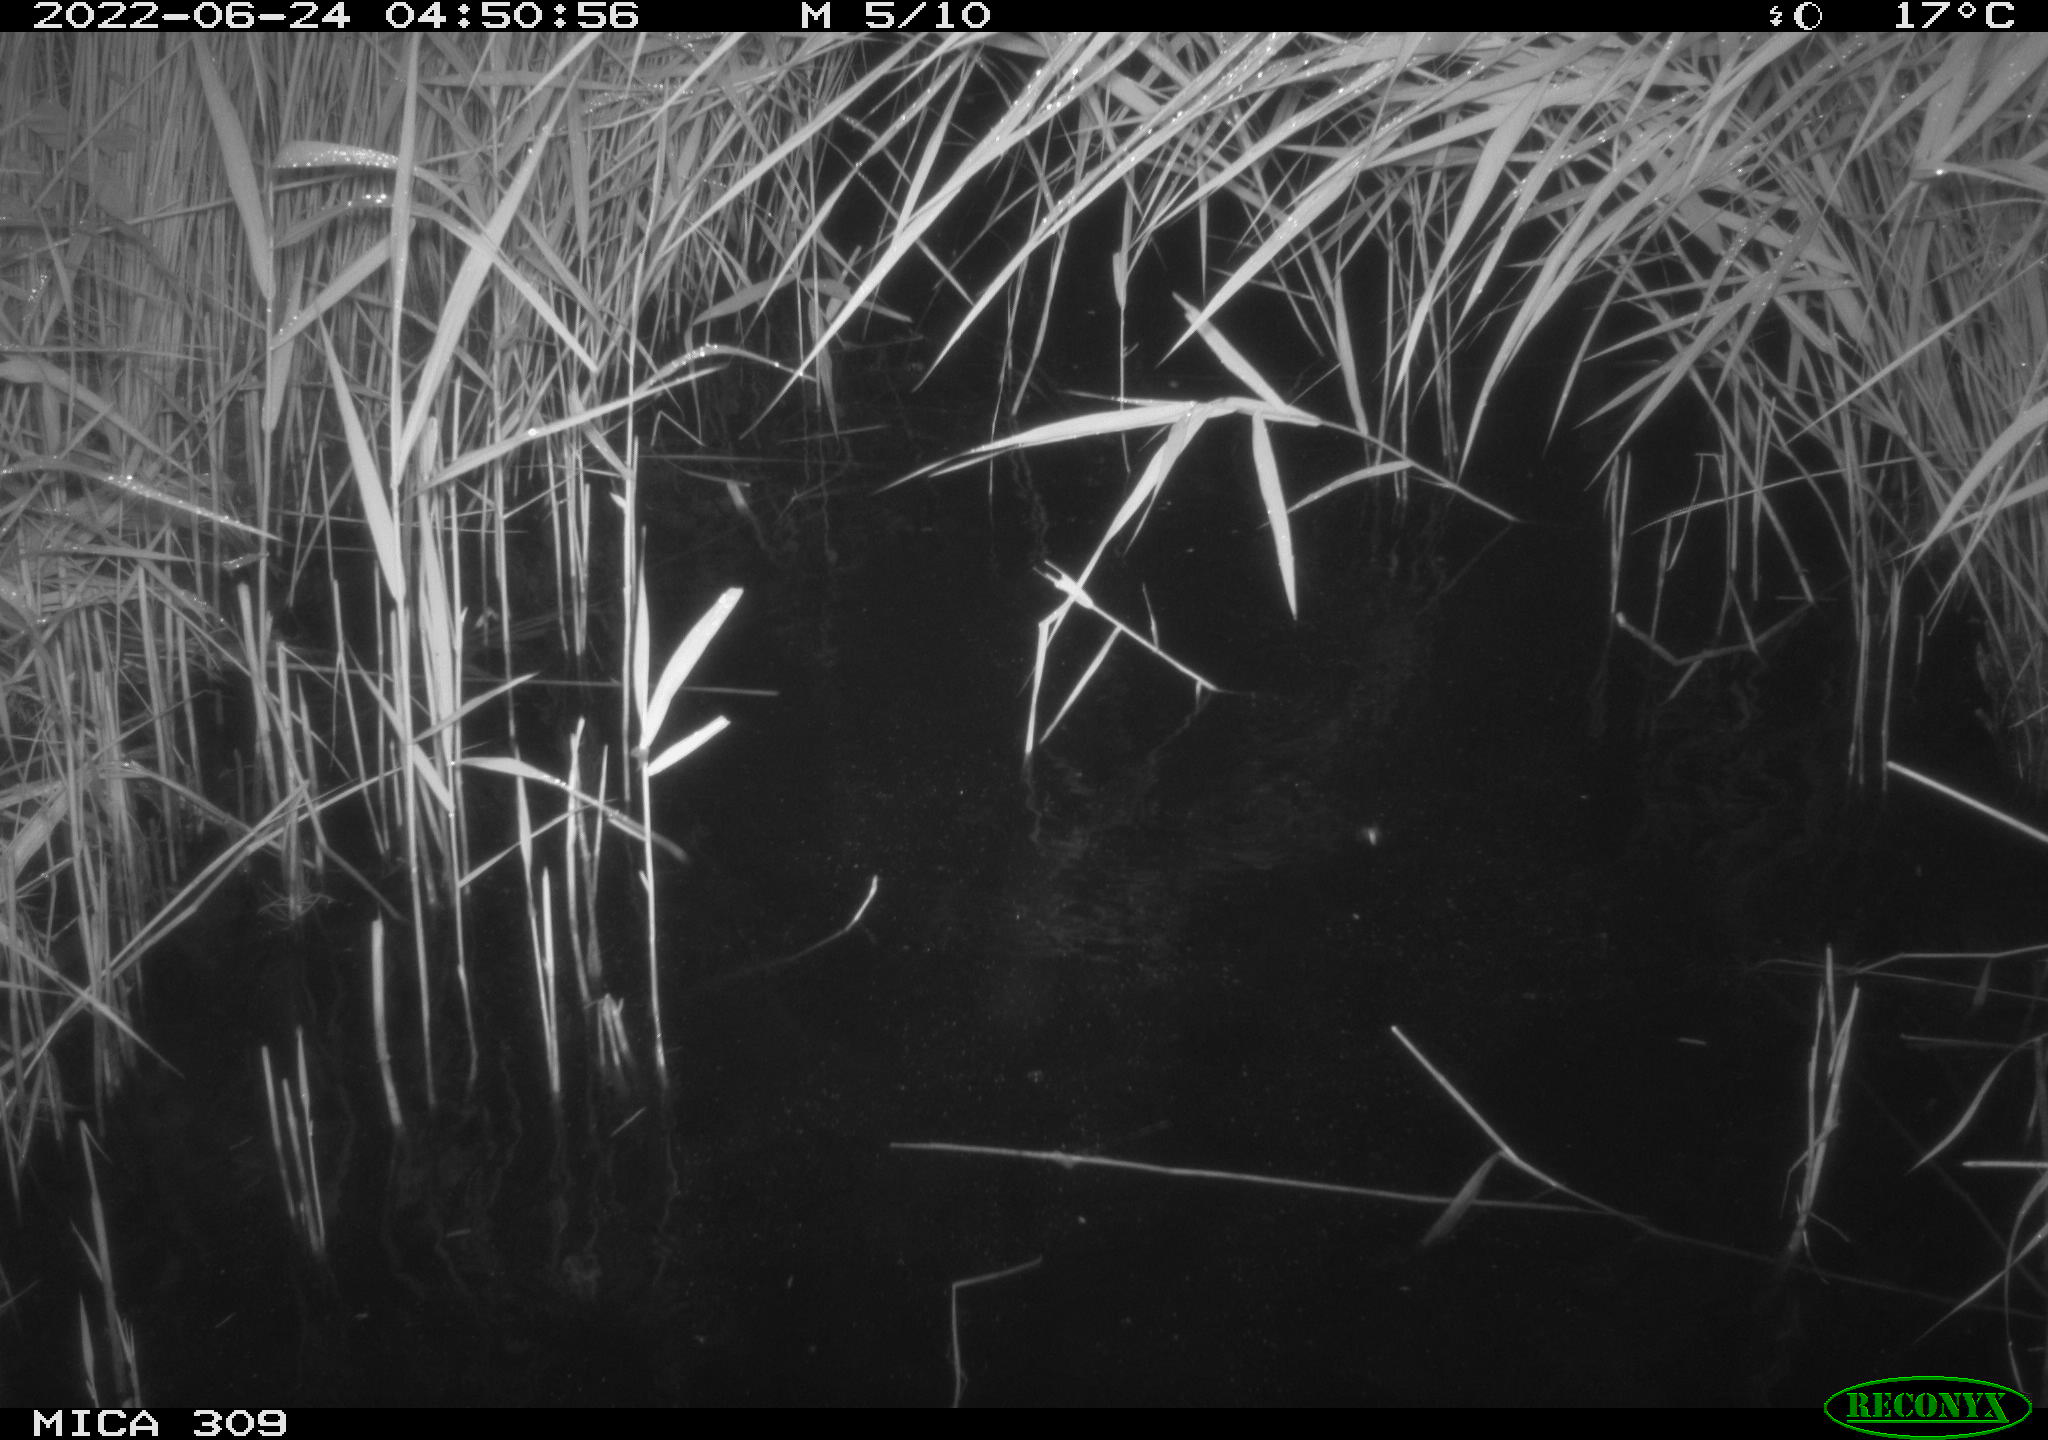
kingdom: Animalia
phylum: Chordata
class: Aves
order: Anseriformes
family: Anatidae
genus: Anas
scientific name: Anas platyrhynchos
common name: Mallard
